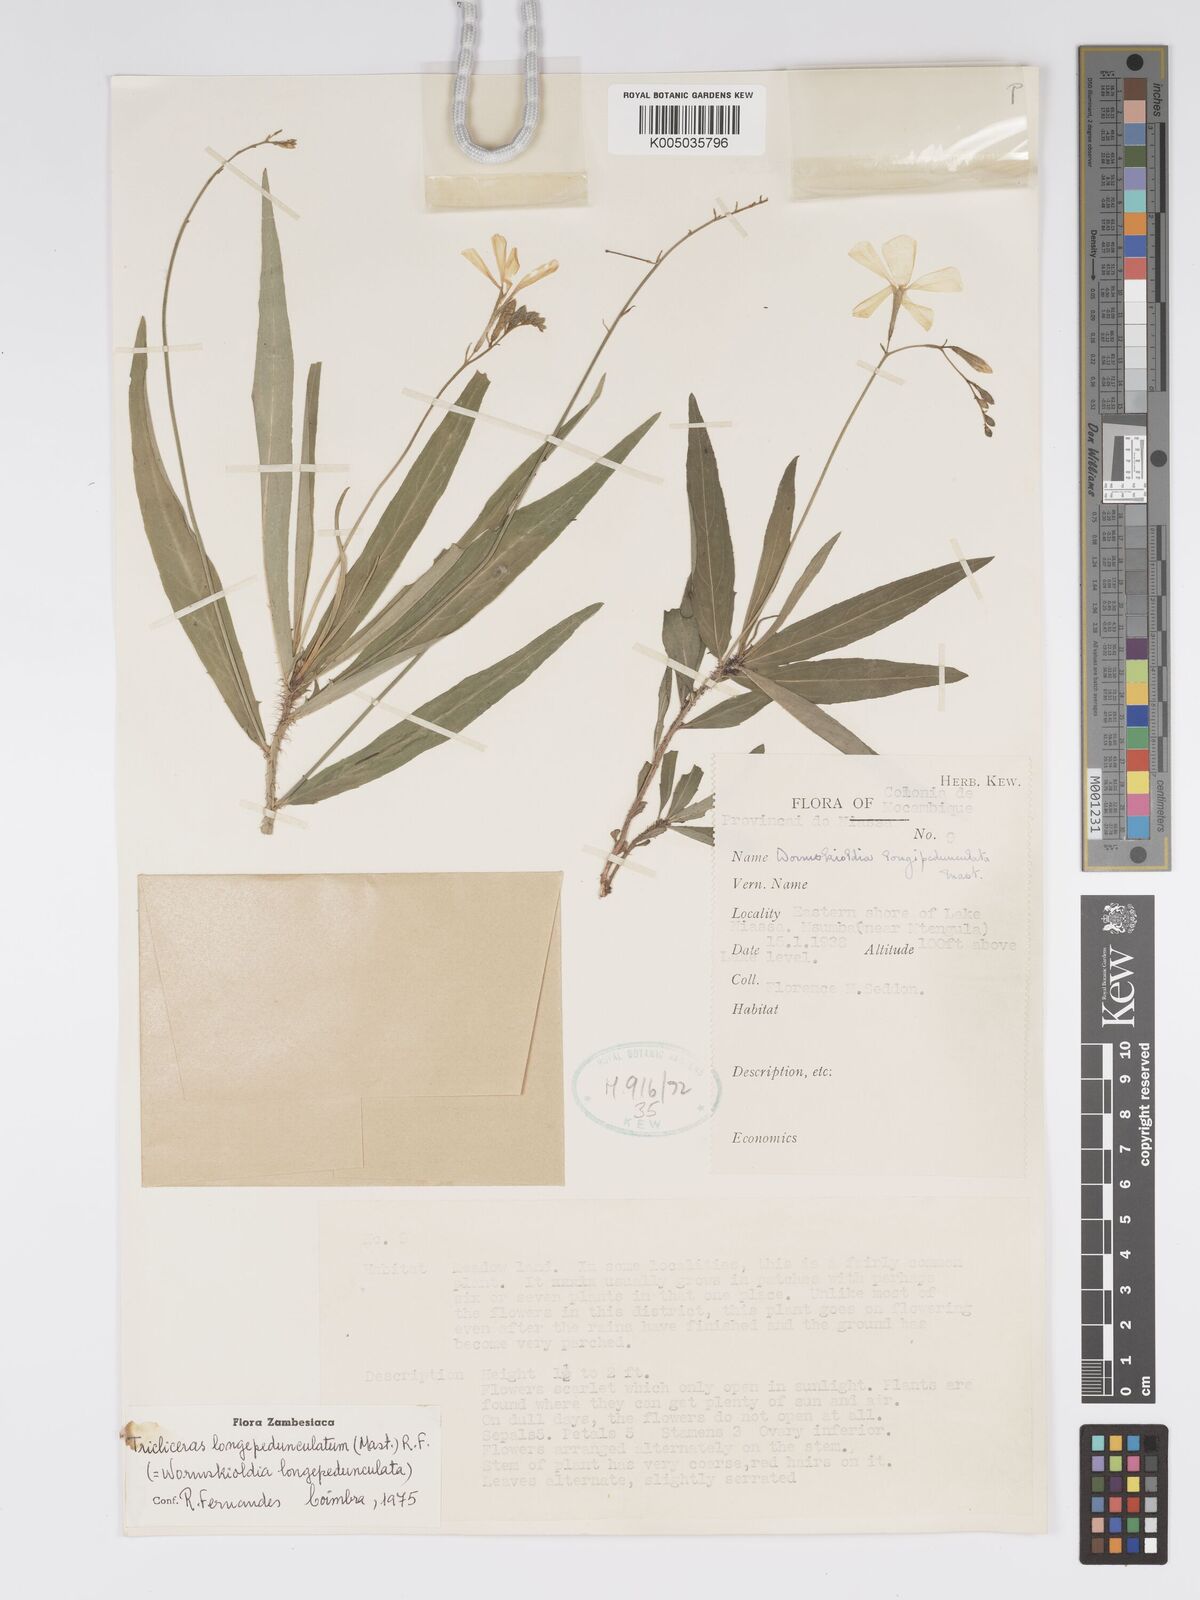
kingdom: Plantae
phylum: Tracheophyta
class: Magnoliopsida
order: Malpighiales
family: Turneraceae
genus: Tricliceras
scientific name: Tricliceras longepedunculatum
